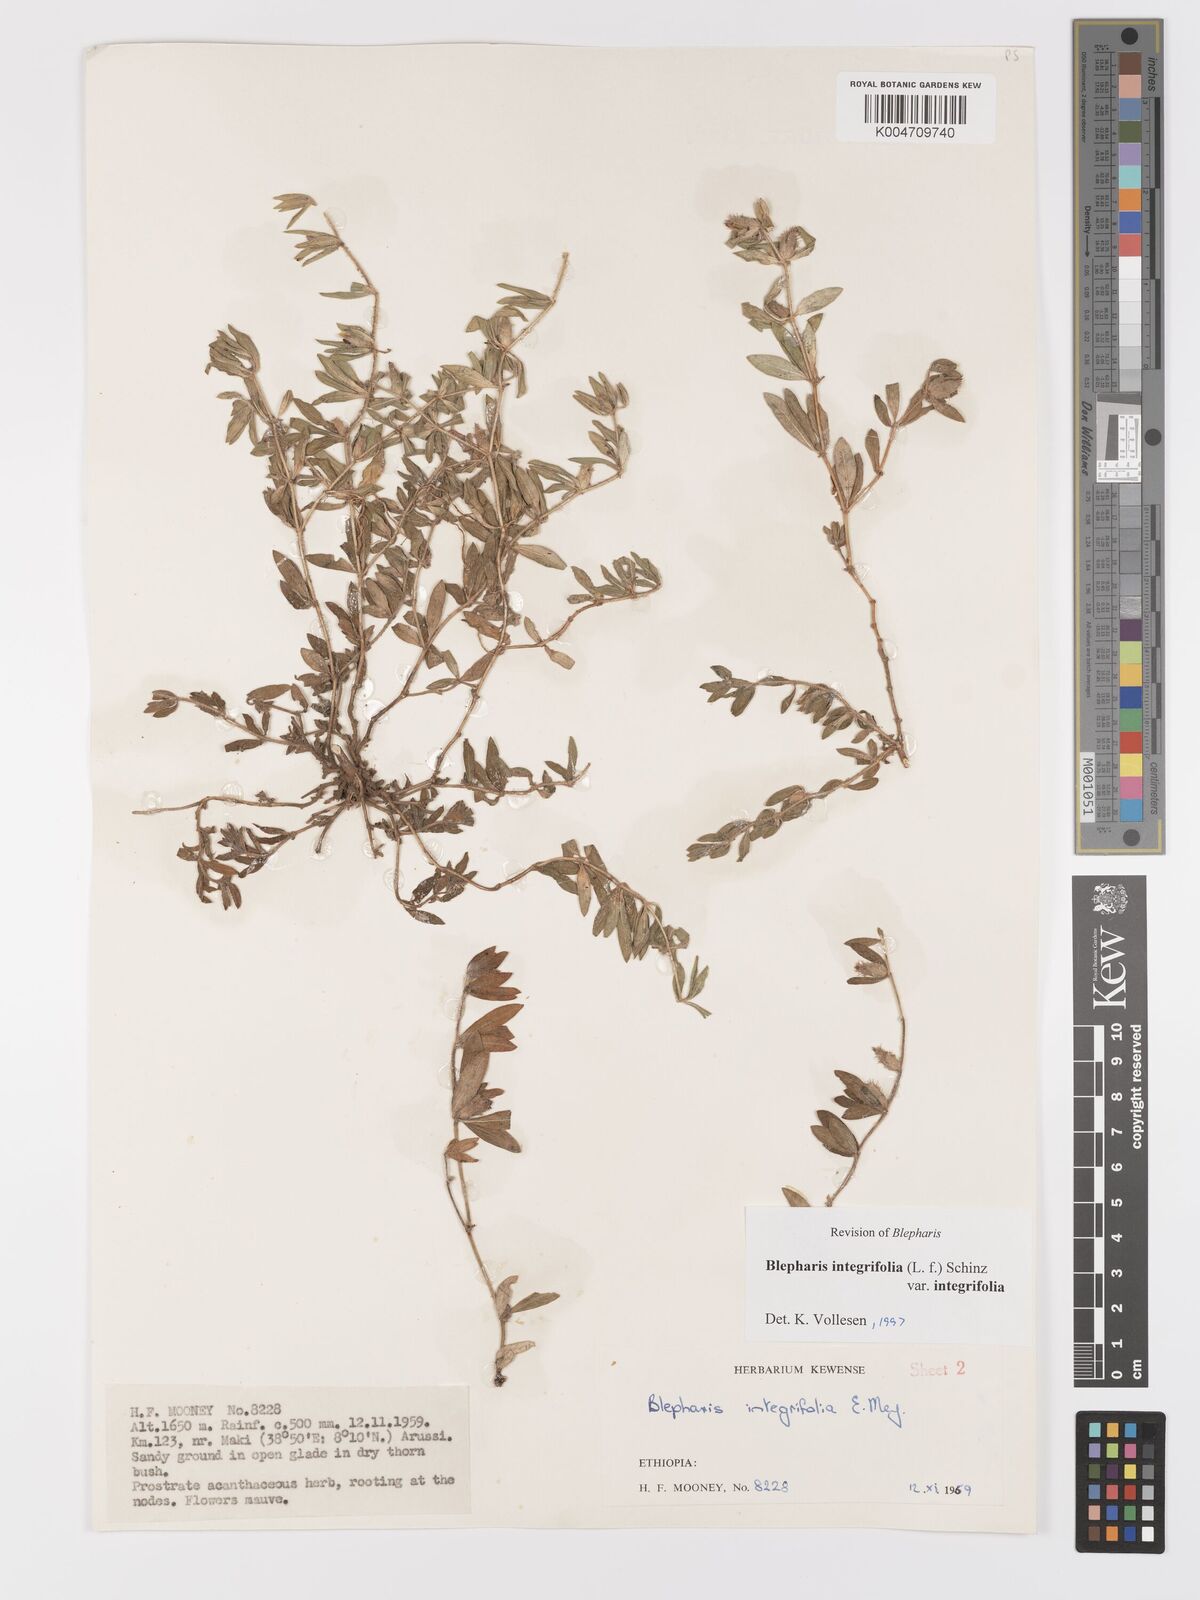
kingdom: Plantae
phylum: Tracheophyta
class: Magnoliopsida
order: Lamiales
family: Acanthaceae
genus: Blepharis
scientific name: Blepharis integrifolia
